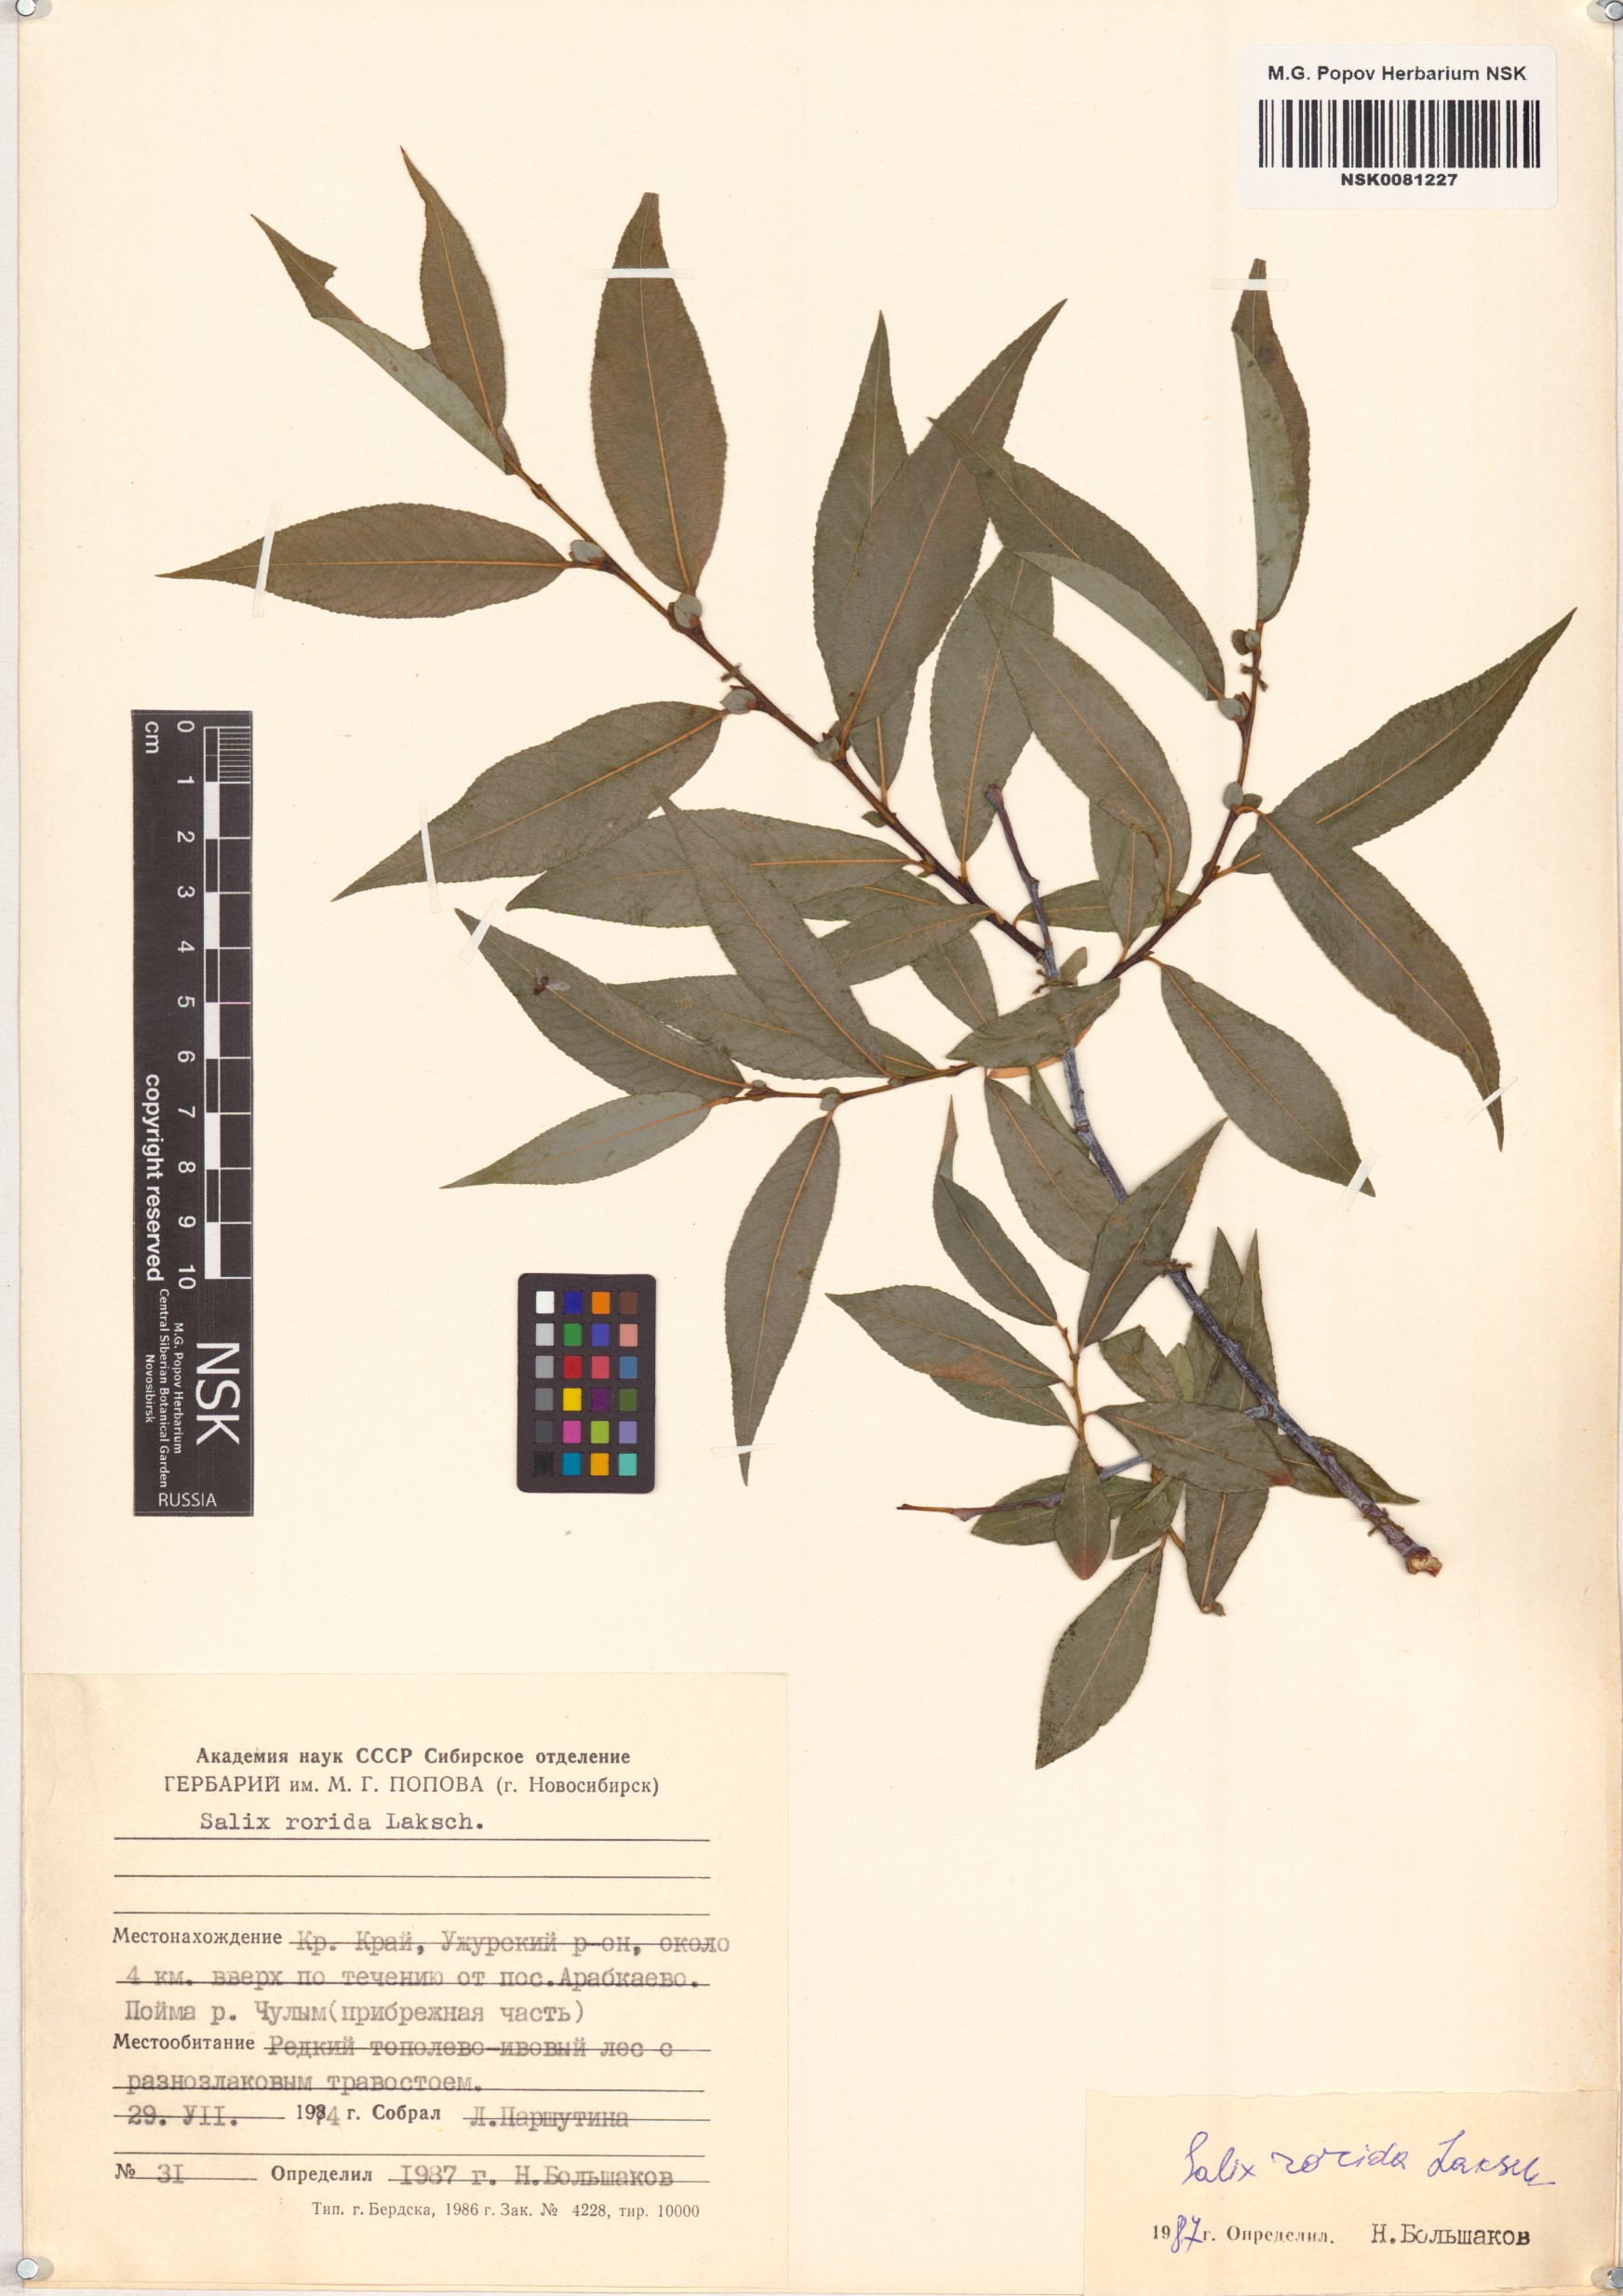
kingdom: Plantae
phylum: Tracheophyta
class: Magnoliopsida
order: Malpighiales
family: Salicaceae
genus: Salix
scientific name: Salix rorida
